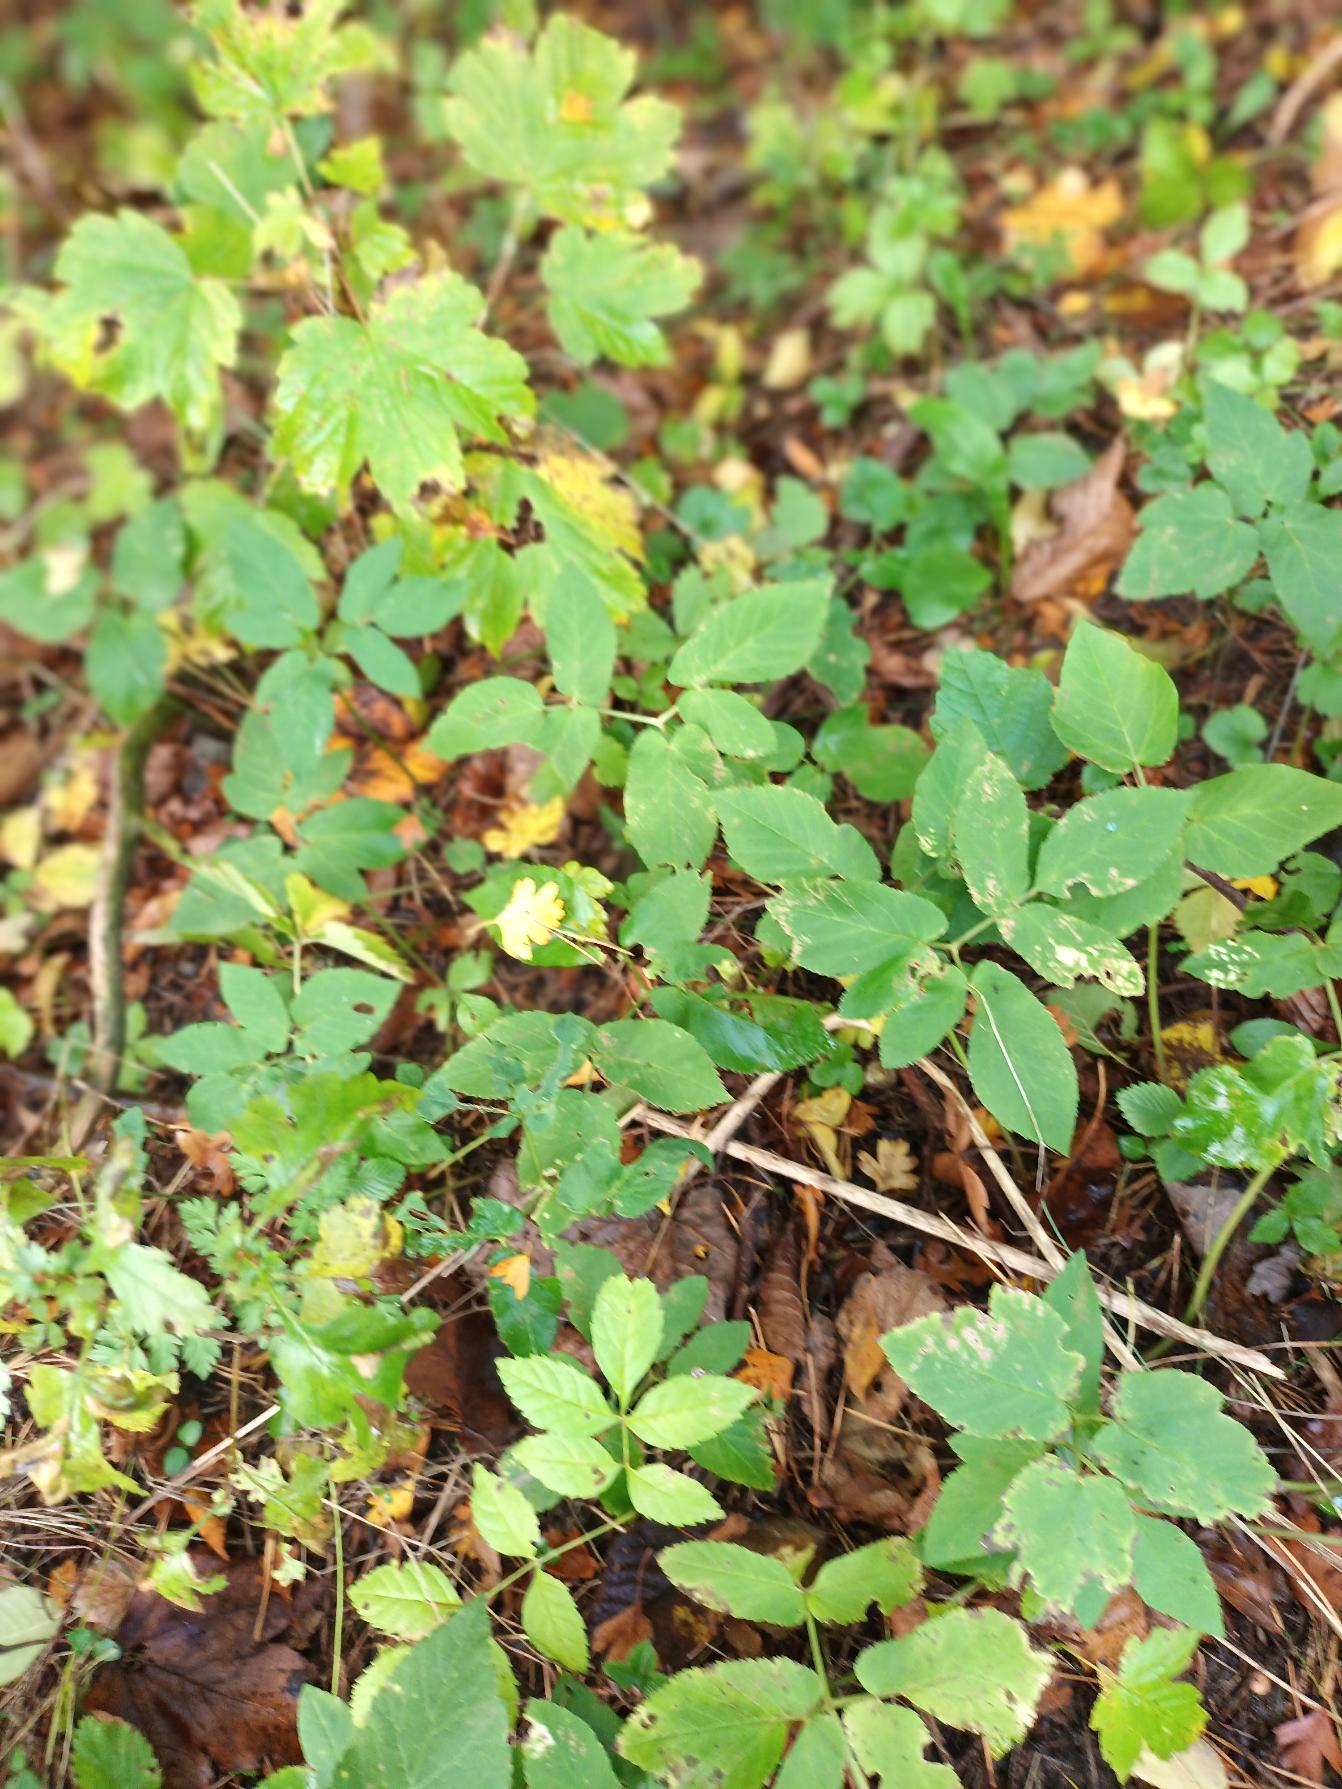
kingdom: Plantae
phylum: Tracheophyta
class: Magnoliopsida
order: Apiales
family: Apiaceae
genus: Aegopodium
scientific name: Aegopodium podagraria
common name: Skvalderkål
